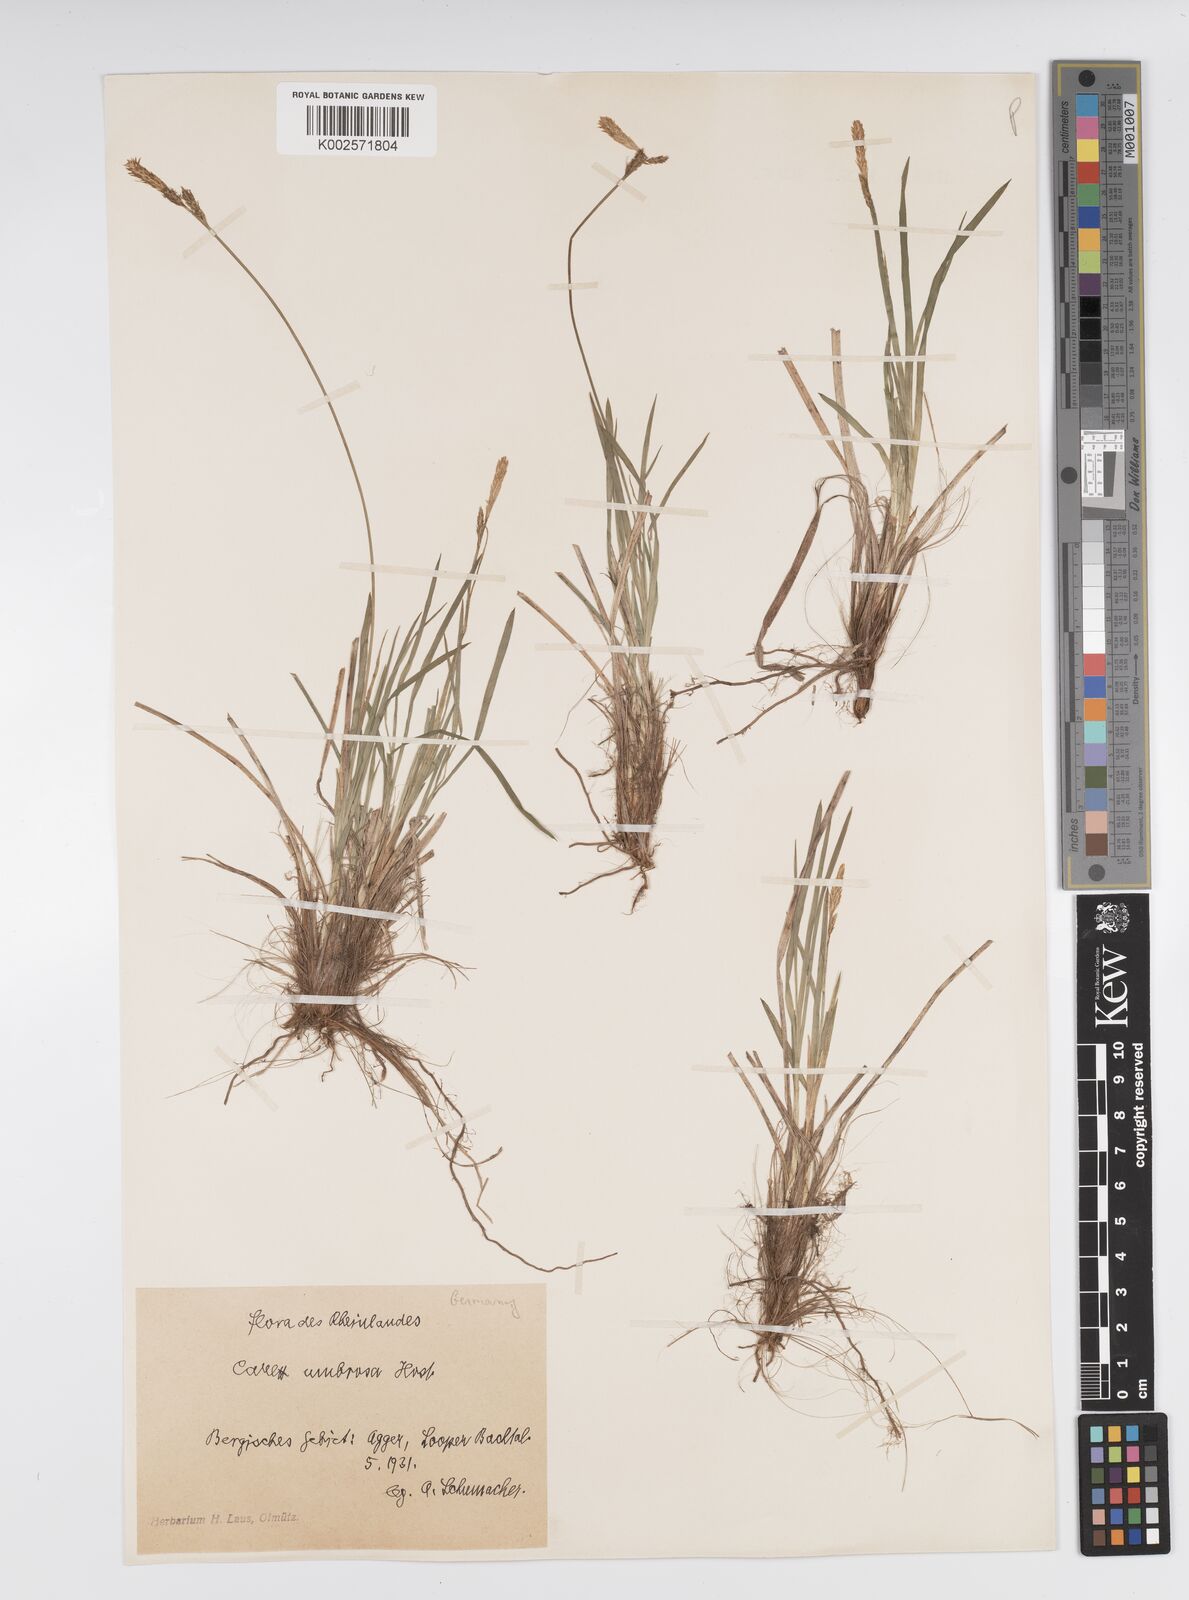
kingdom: Plantae
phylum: Tracheophyta
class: Liliopsida
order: Poales
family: Cyperaceae
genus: Carex
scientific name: Carex umbrosa
